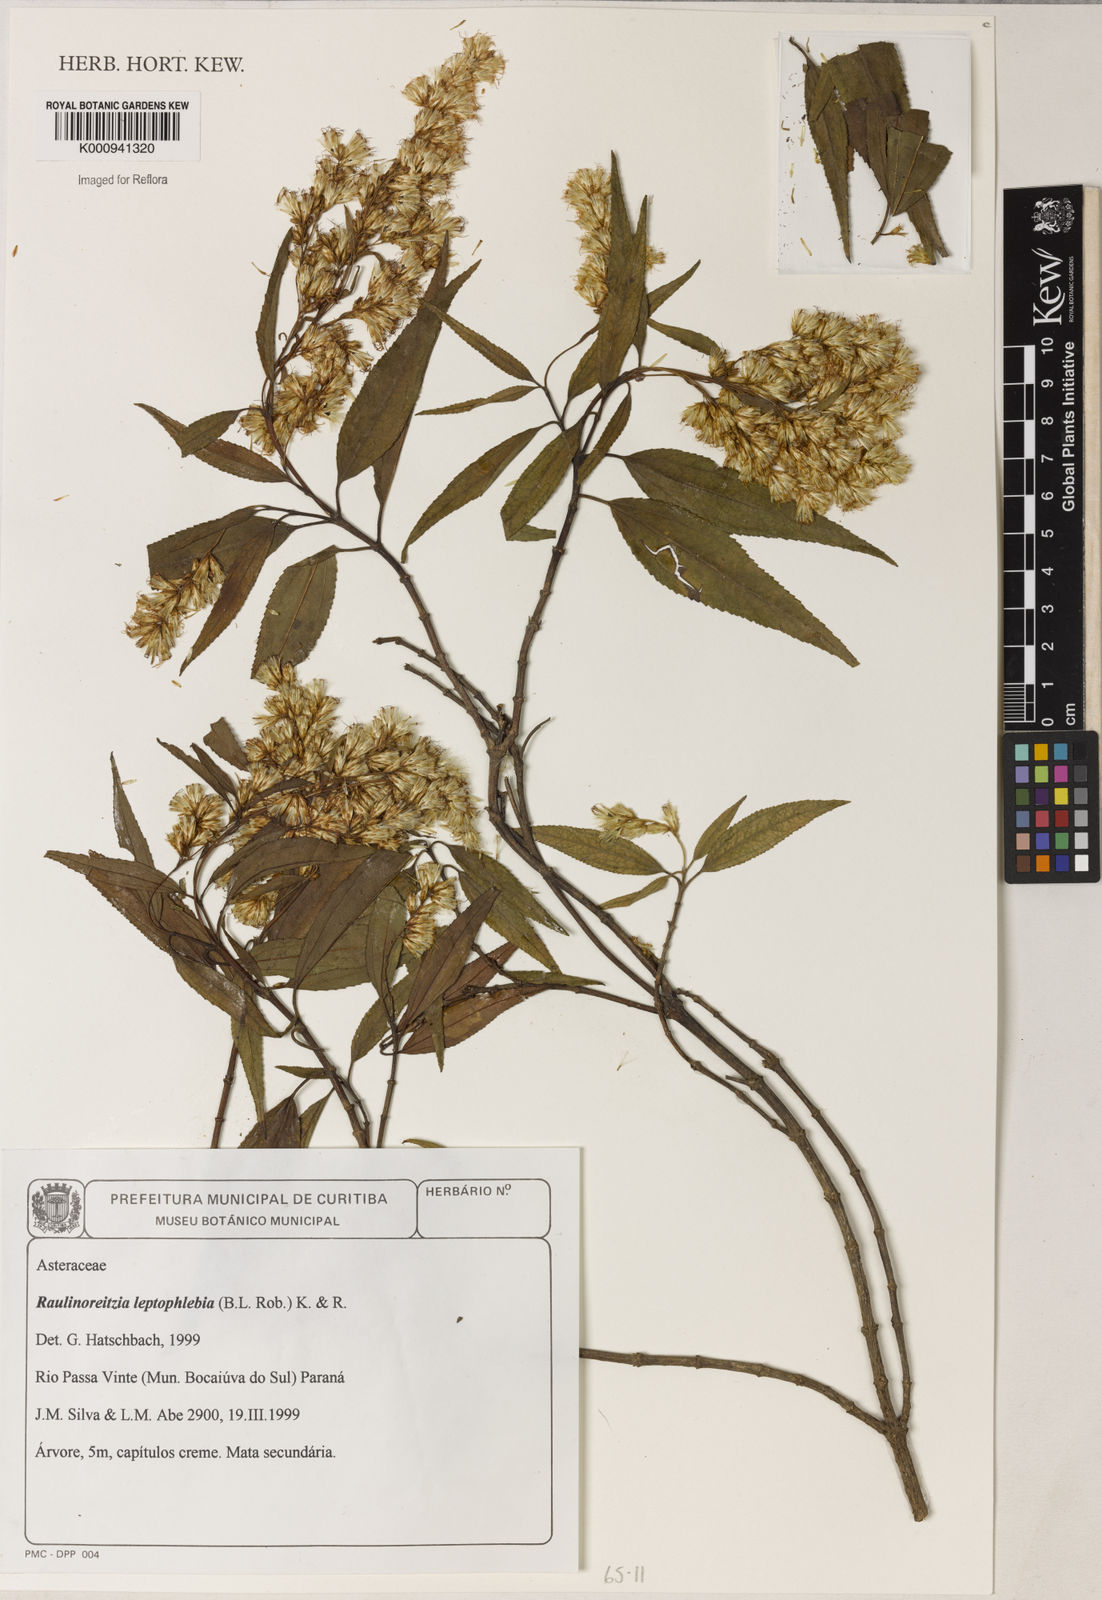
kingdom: Plantae
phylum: Tracheophyta
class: Magnoliopsida
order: Asterales
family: Asteraceae
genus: Raulinoreitzia
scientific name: Raulinoreitzia leptophlebia
